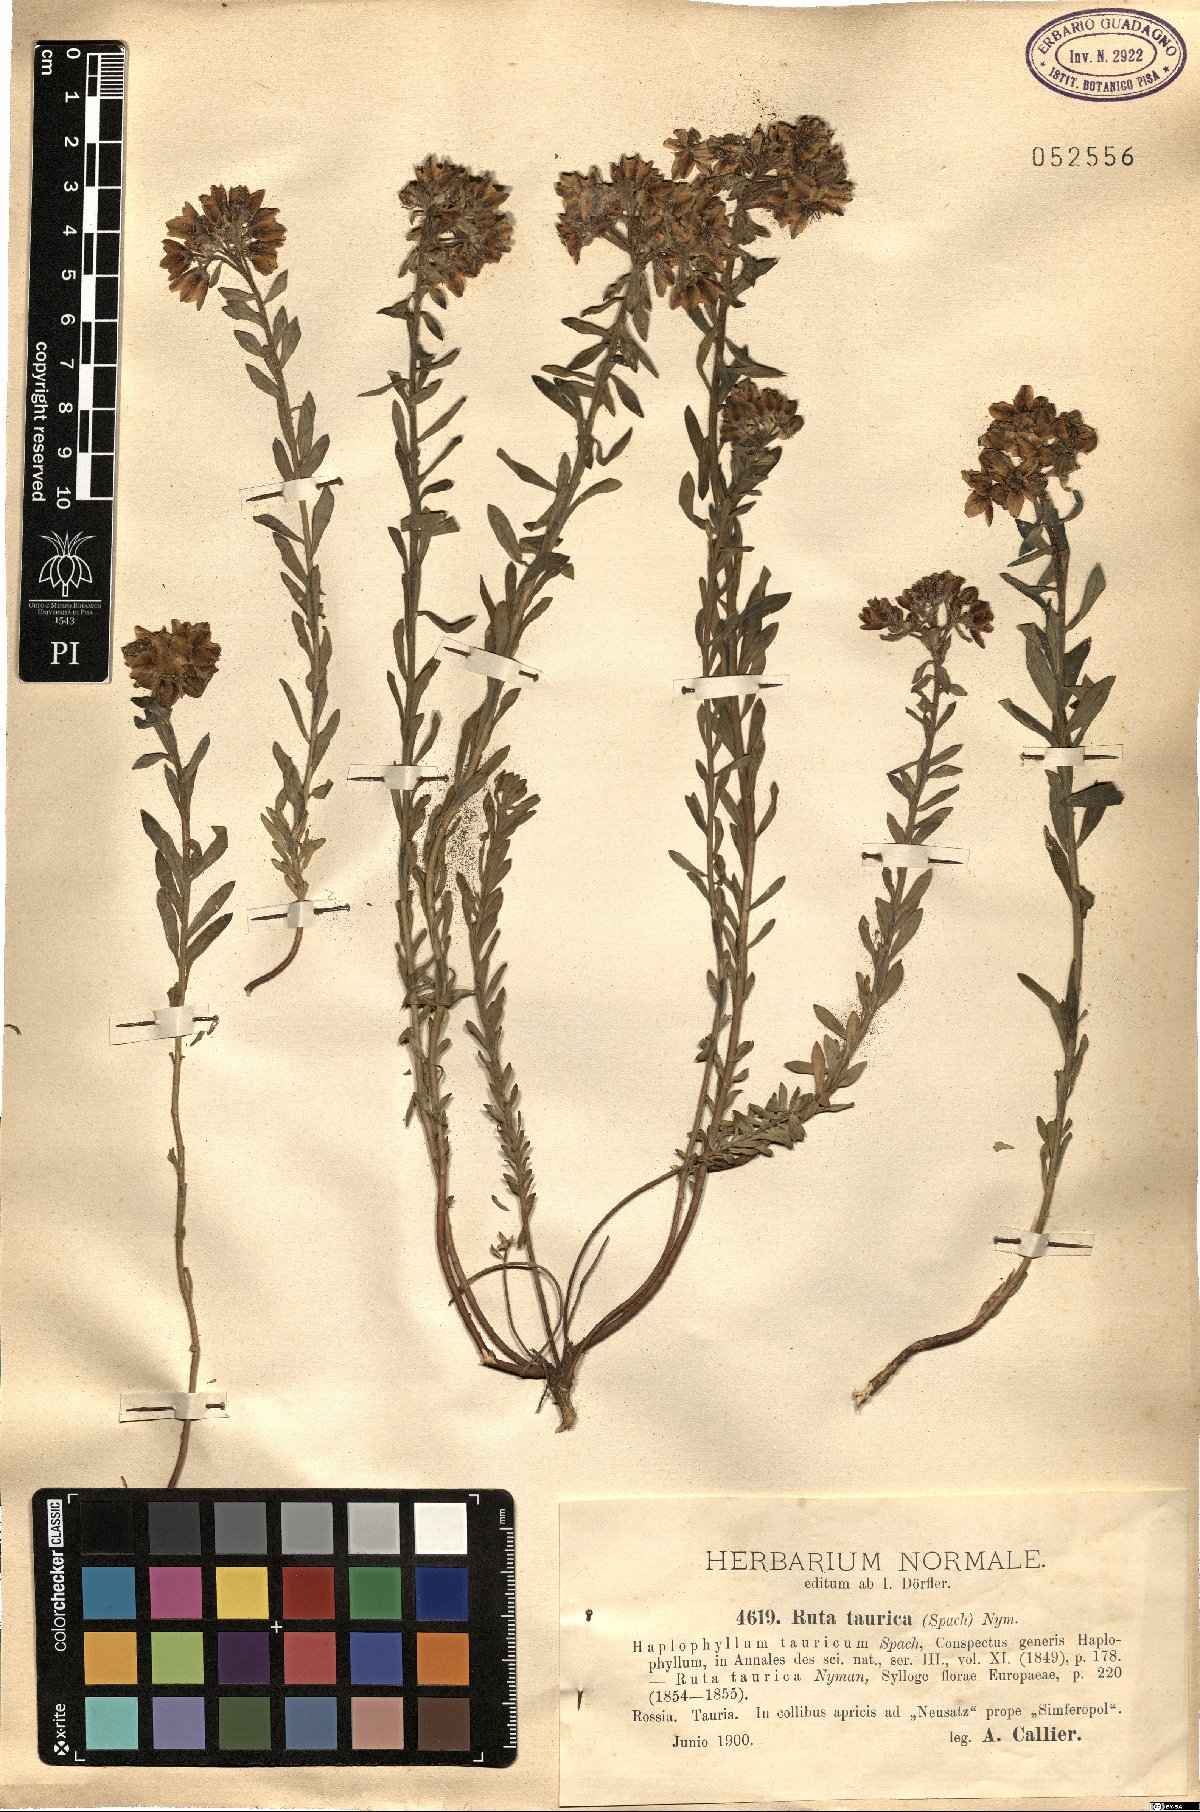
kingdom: Plantae
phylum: Tracheophyta
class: Magnoliopsida
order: Sapindales
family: Rutaceae
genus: Haplophyllum
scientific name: Haplophyllum thesioides
